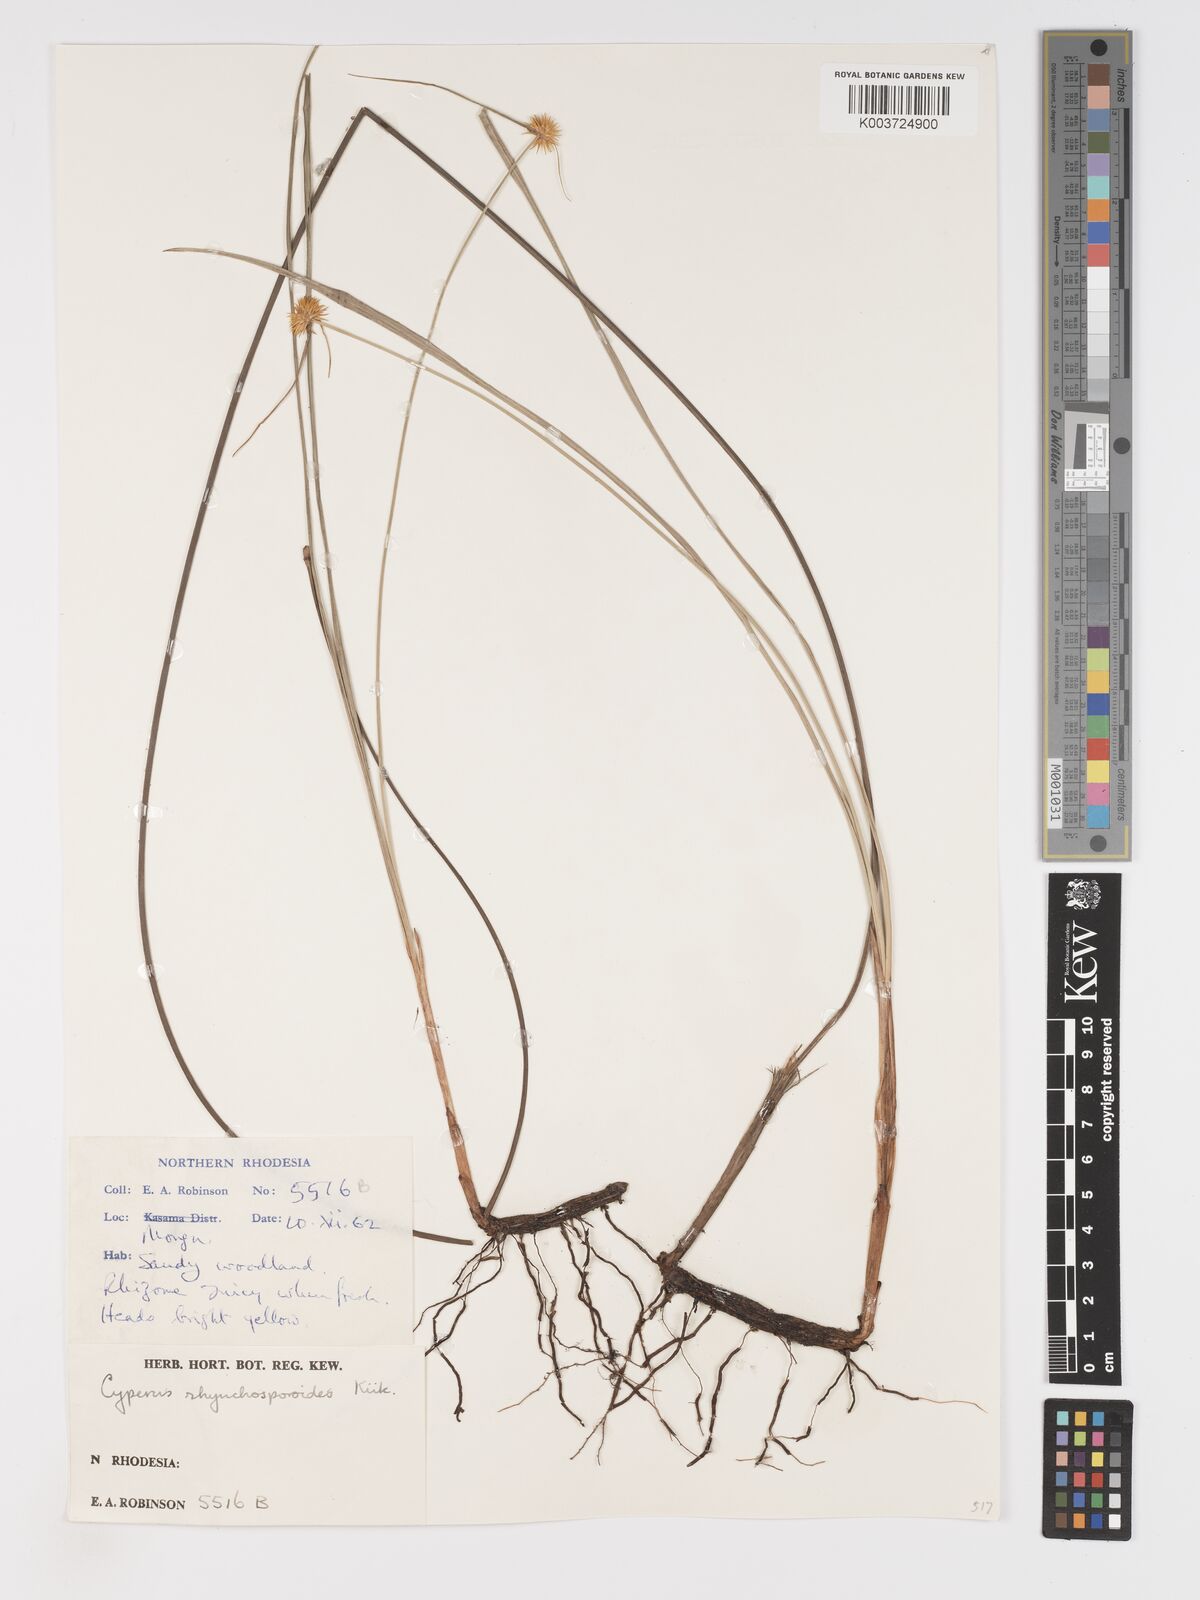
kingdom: Plantae
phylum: Tracheophyta
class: Liliopsida
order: Poales
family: Cyperaceae
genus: Cyperus
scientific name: Cyperus altochrysocephalus
